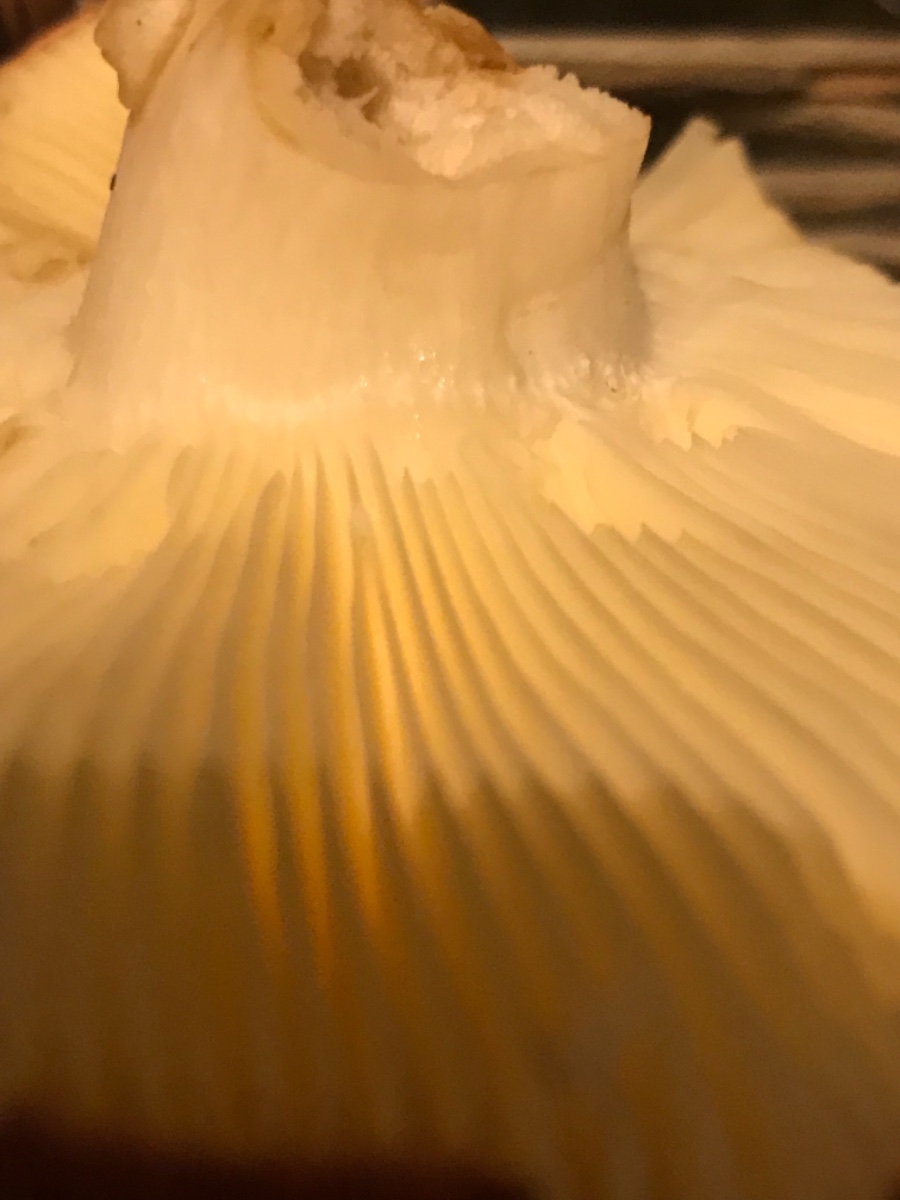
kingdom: Fungi
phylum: Basidiomycota
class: Agaricomycetes
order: Russulales
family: Russulaceae
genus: Russula
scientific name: Russula
